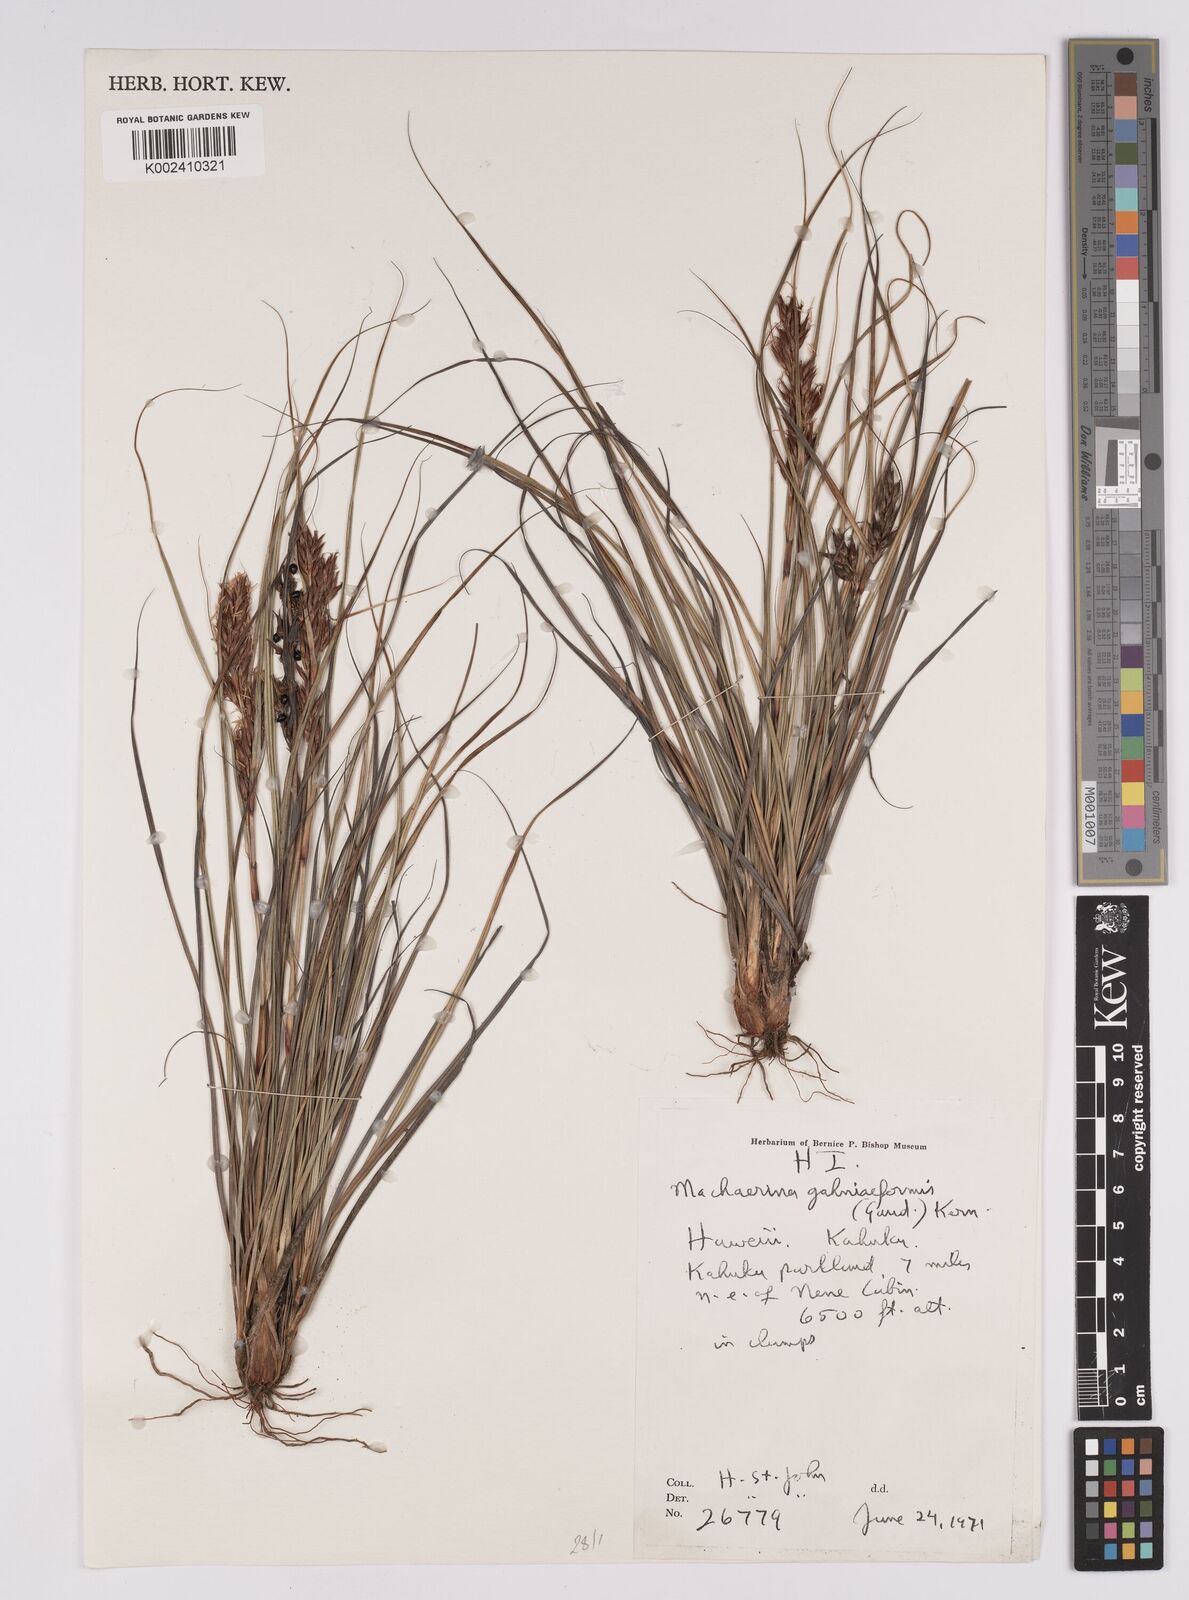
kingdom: Plantae
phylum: Tracheophyta
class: Liliopsida
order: Poales
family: Cyperaceae
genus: Morelotia
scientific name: Morelotia gahniiformis
